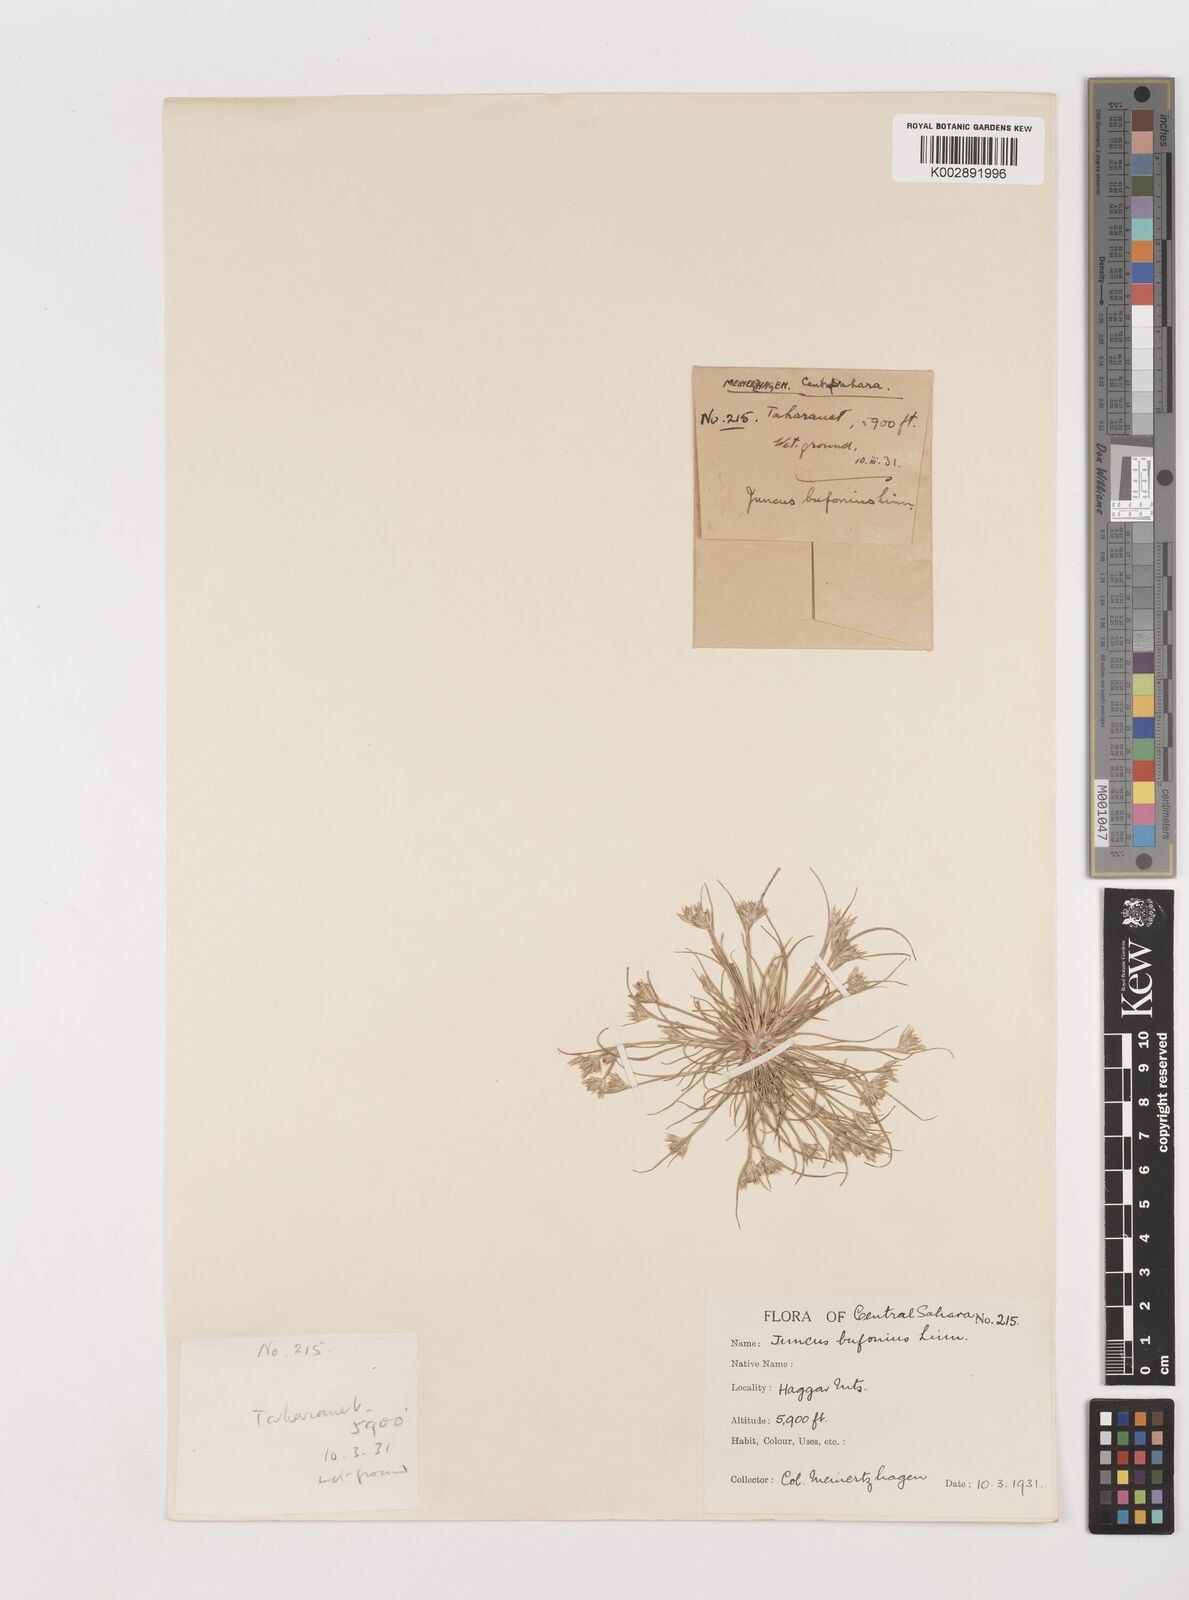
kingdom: Plantae
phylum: Tracheophyta
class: Liliopsida
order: Poales
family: Juncaceae
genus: Juncus
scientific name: Juncus bufonius
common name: Toad rush
